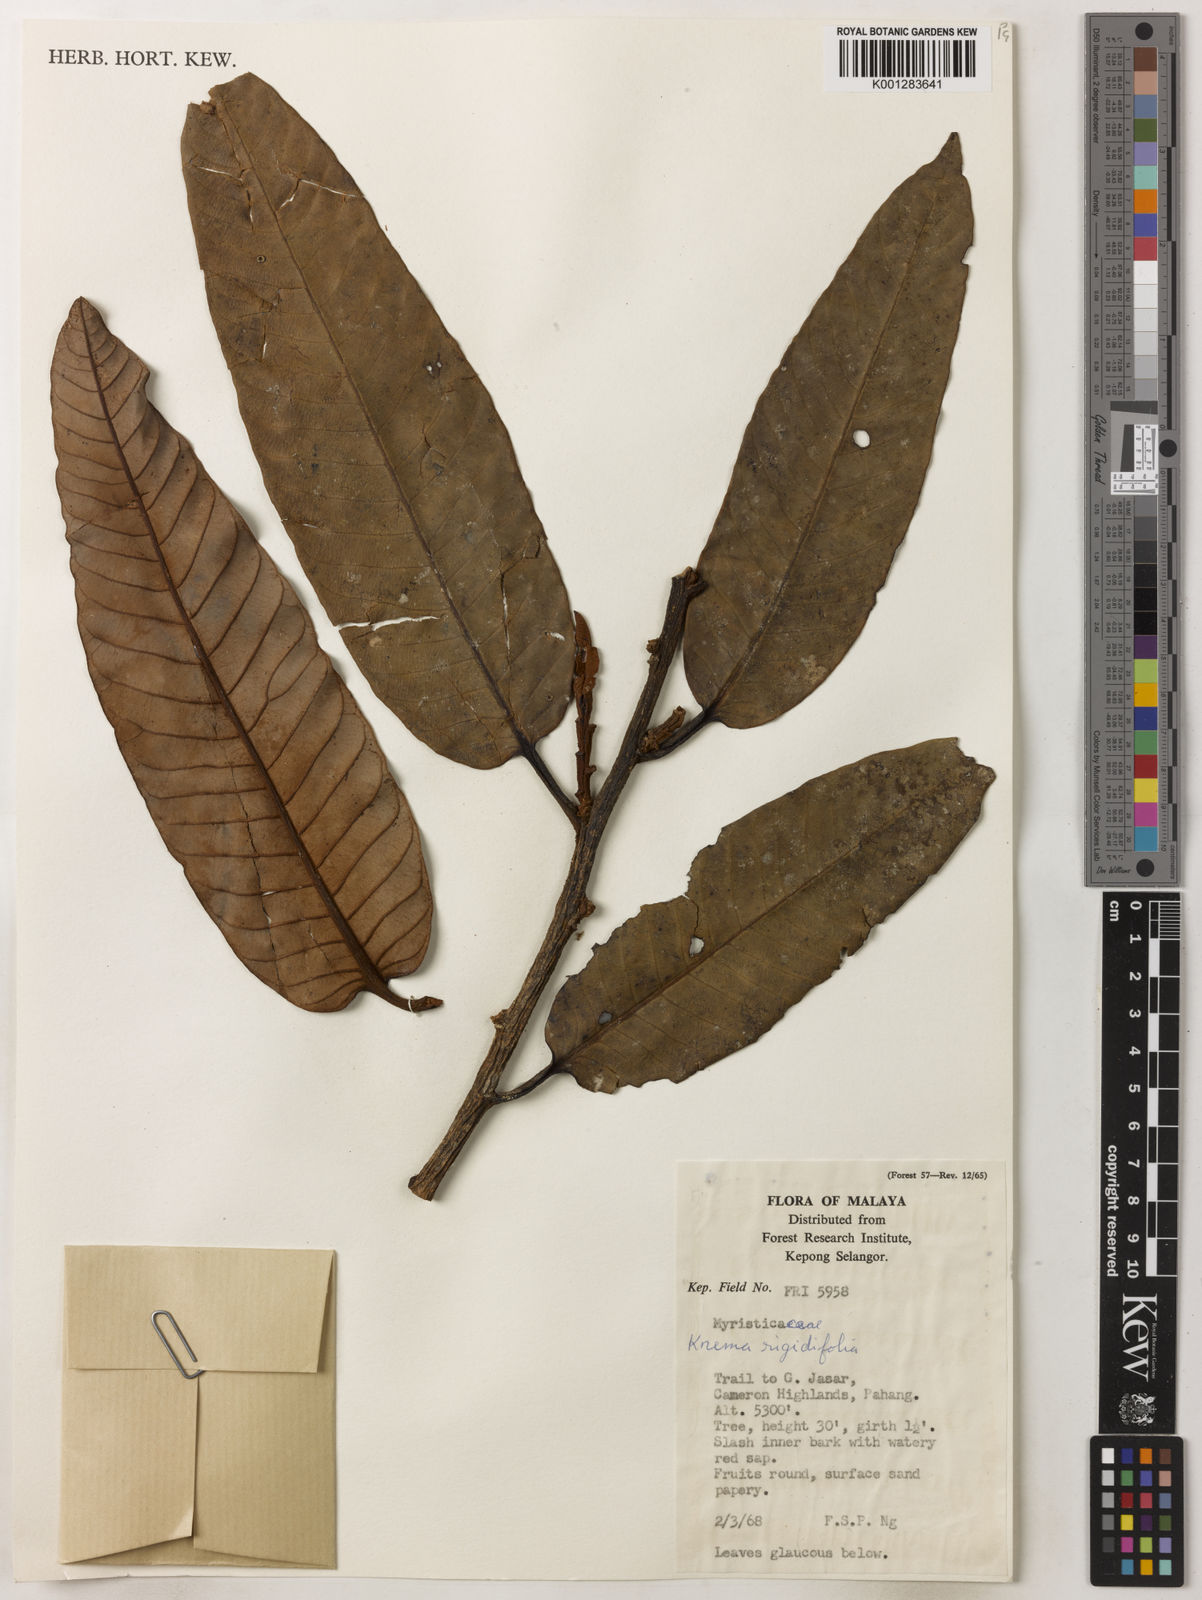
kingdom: Plantae
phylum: Tracheophyta
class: Magnoliopsida
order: Magnoliales
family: Myristicaceae
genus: Knema
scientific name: Knema rigidifolia
